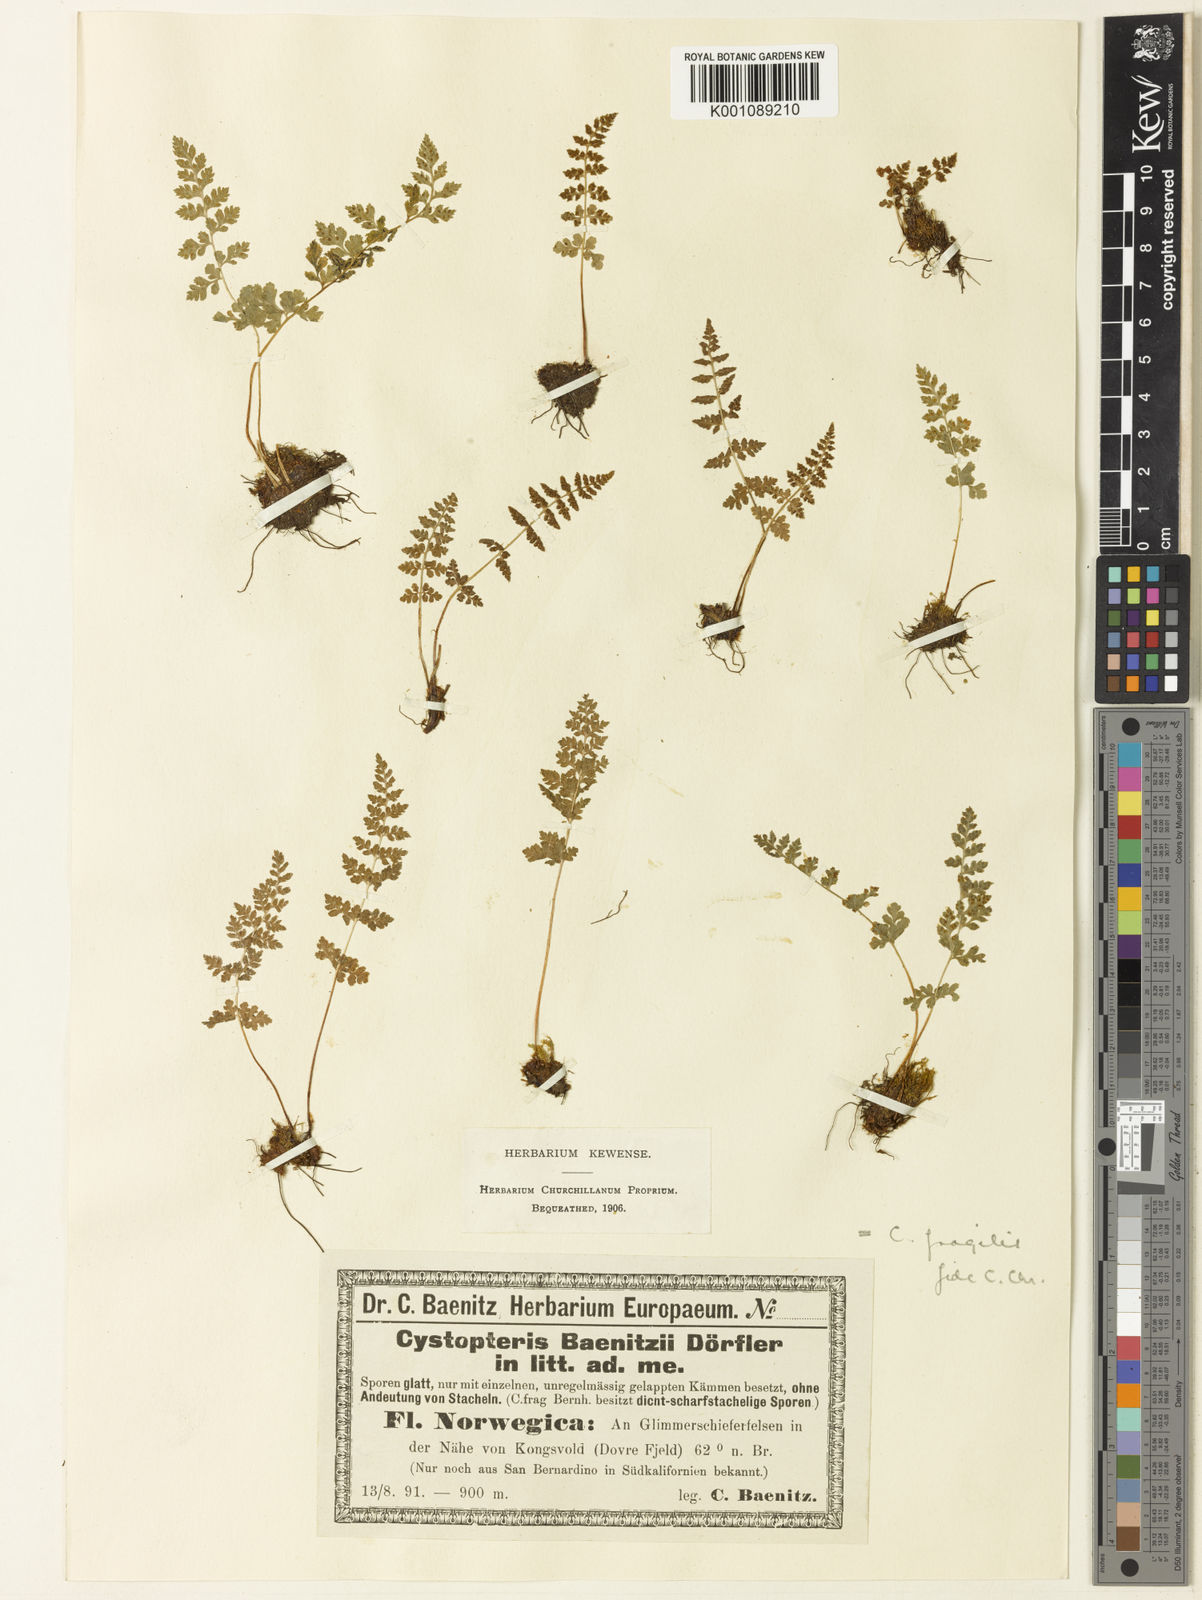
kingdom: Plantae
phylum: Tracheophyta
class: Polypodiopsida
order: Polypodiales
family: Cystopteridaceae
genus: Cystopteris
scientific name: Cystopteris fragilis
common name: Brittle bladder fern
